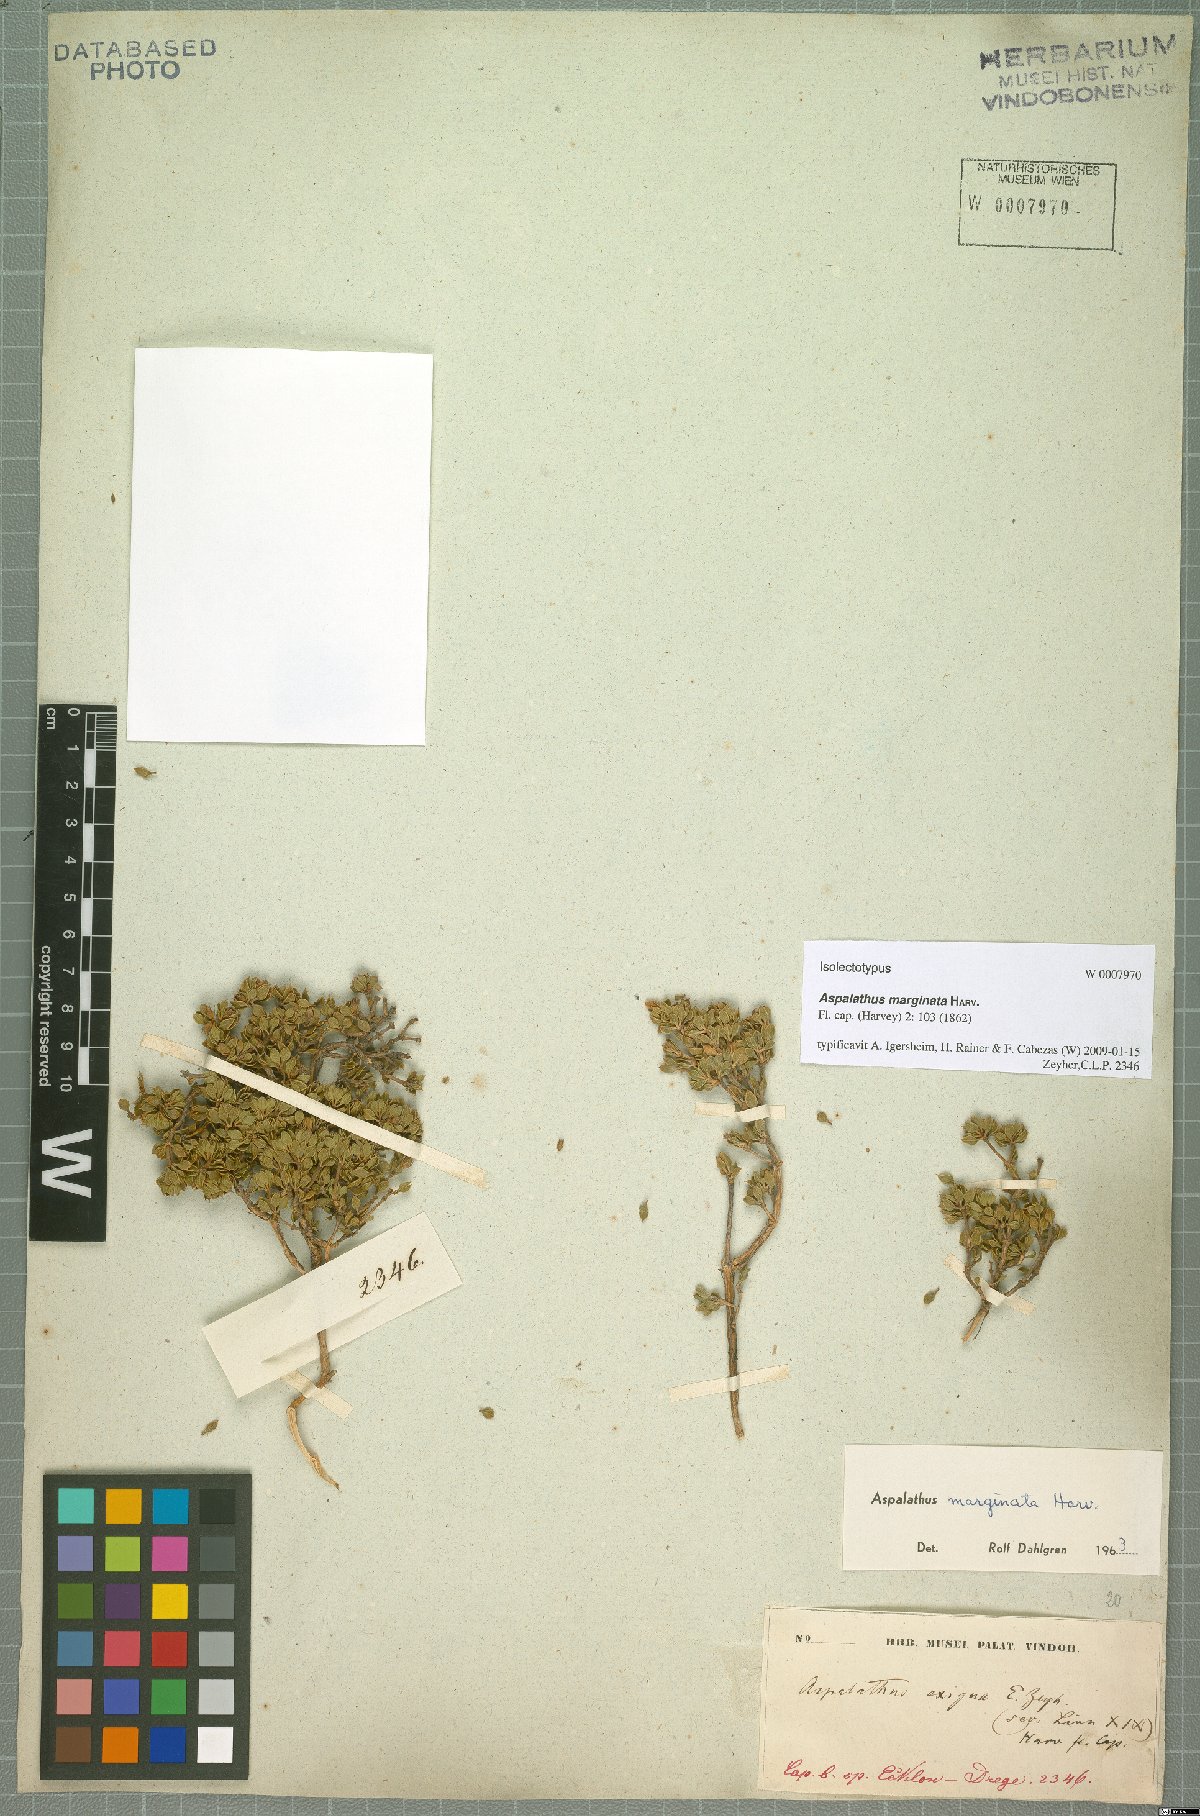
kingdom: Plantae
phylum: Tracheophyta
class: Magnoliopsida
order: Fabales
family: Fabaceae
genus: Aspalathus
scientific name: Aspalathus marginata
